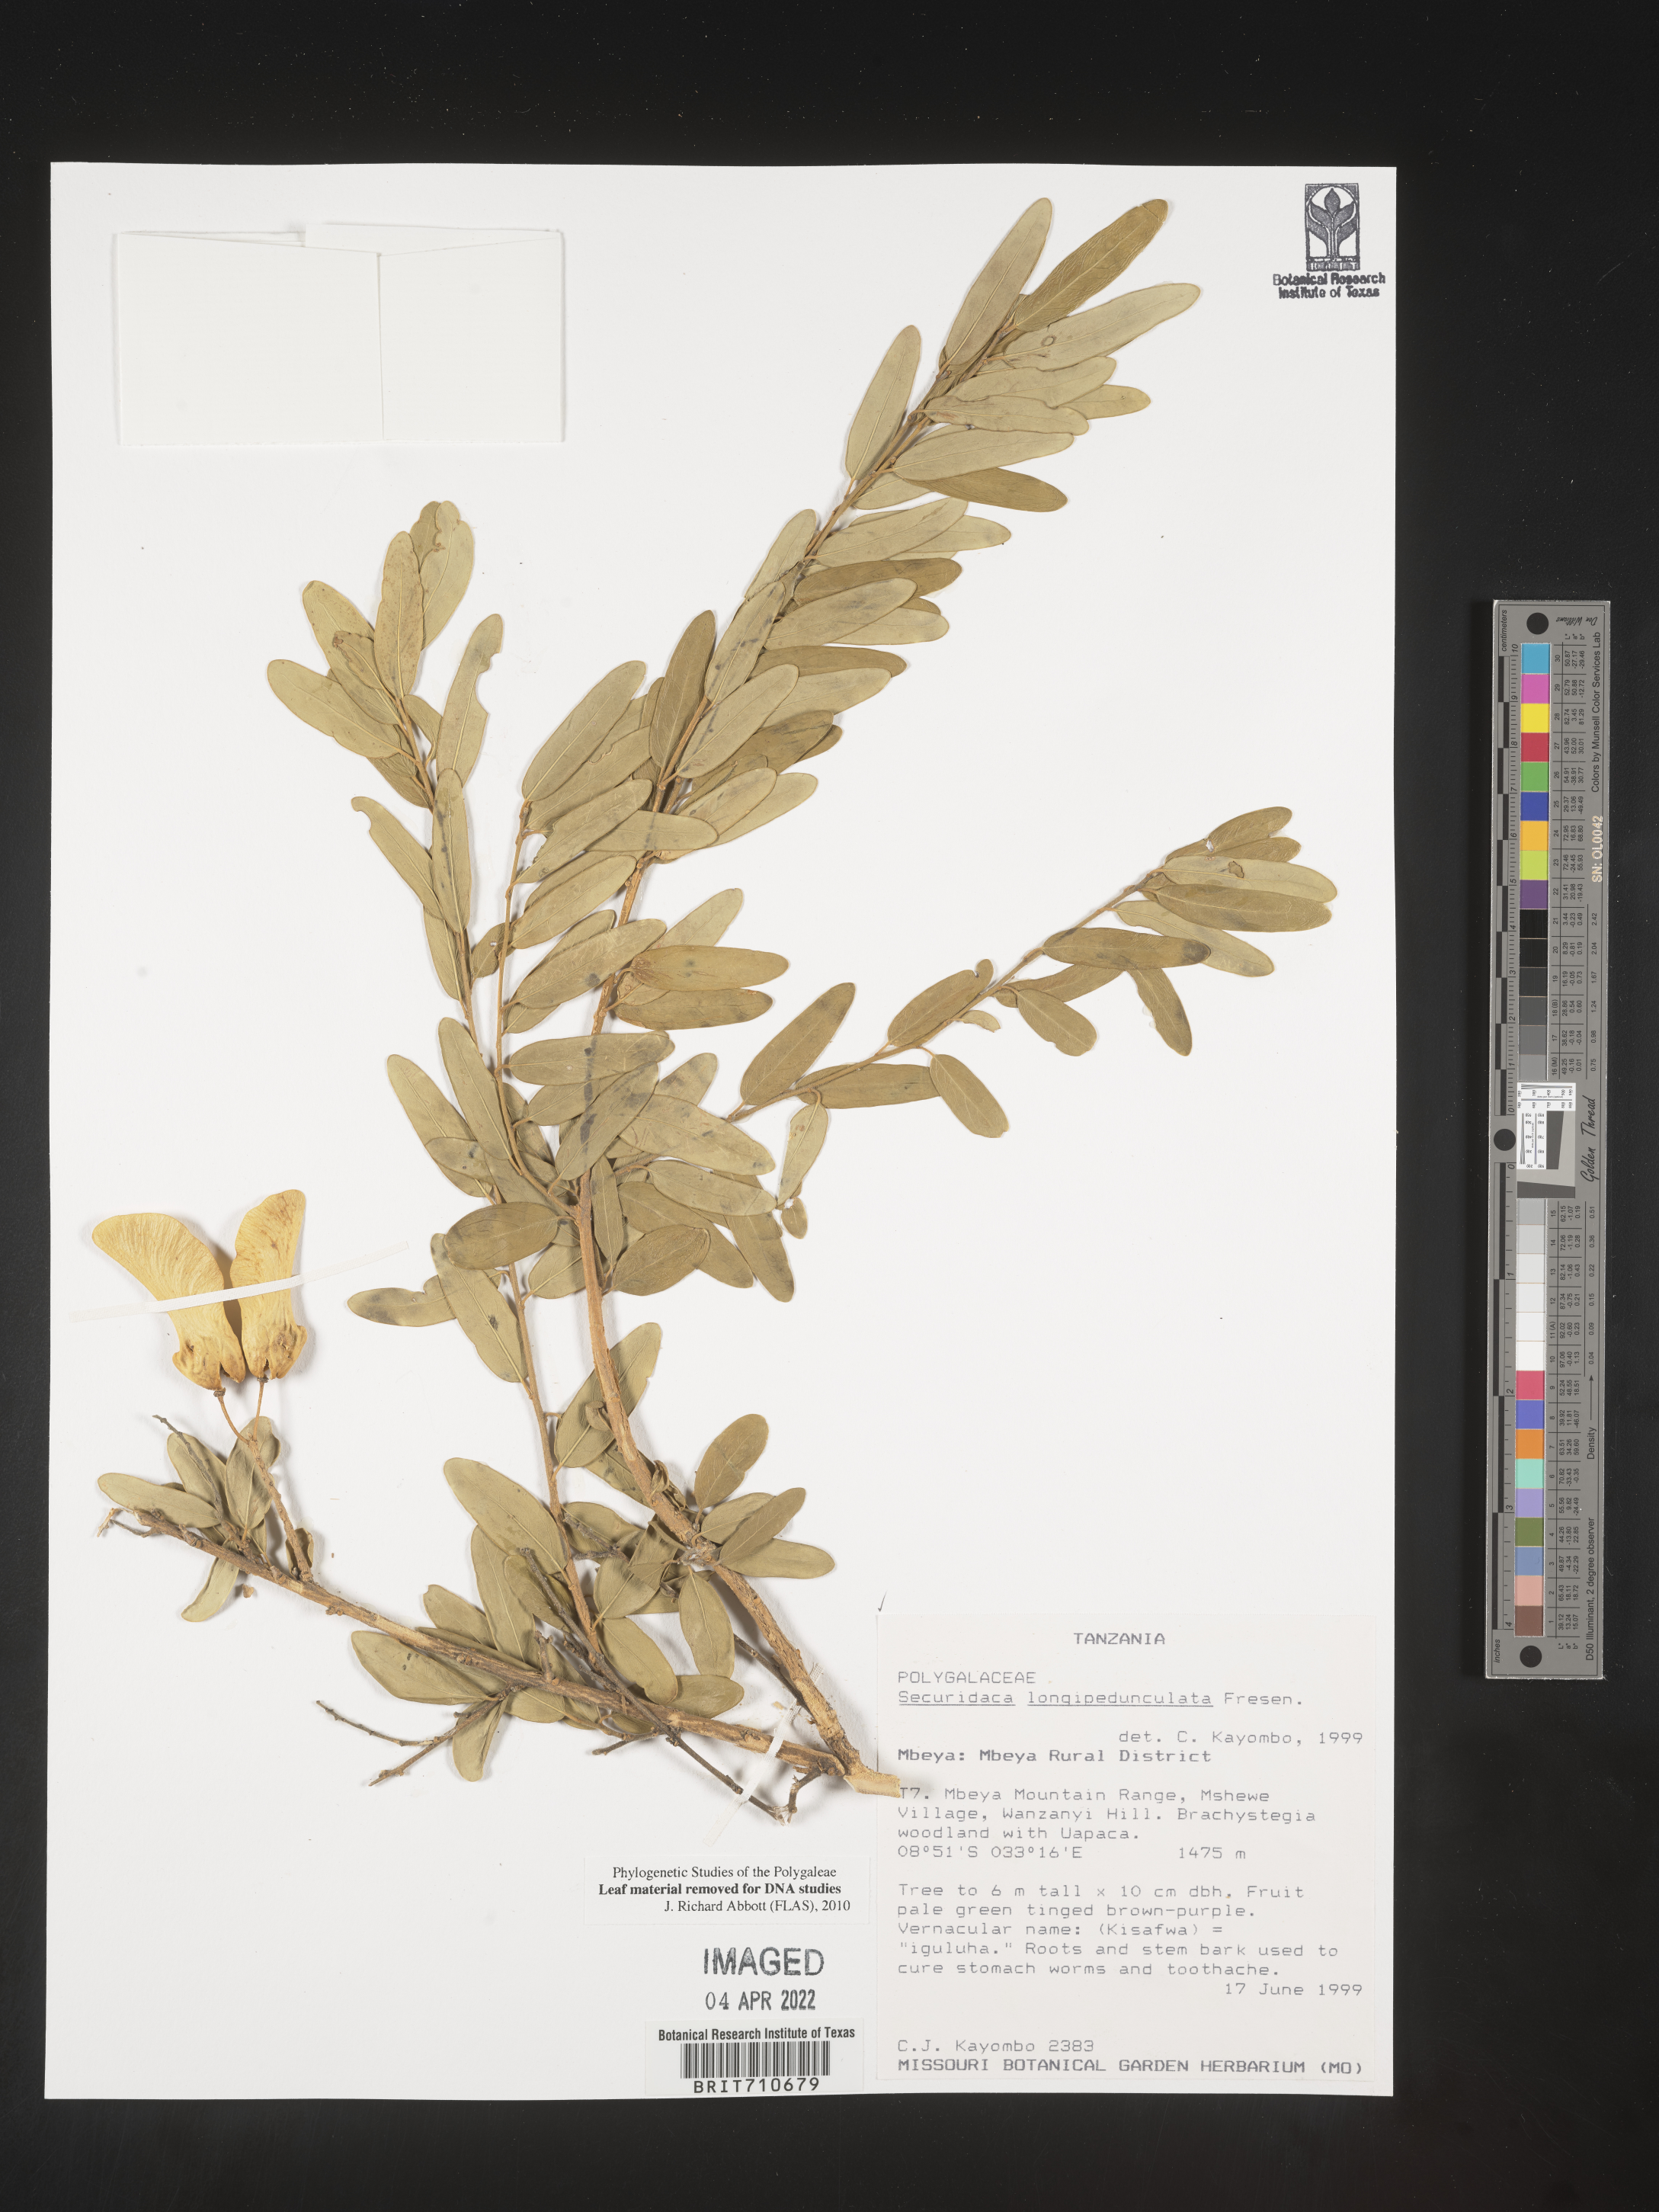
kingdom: Plantae
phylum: Tracheophyta
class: Magnoliopsida
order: Fabales
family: Polygalaceae
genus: Securidaca
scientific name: Securidaca
